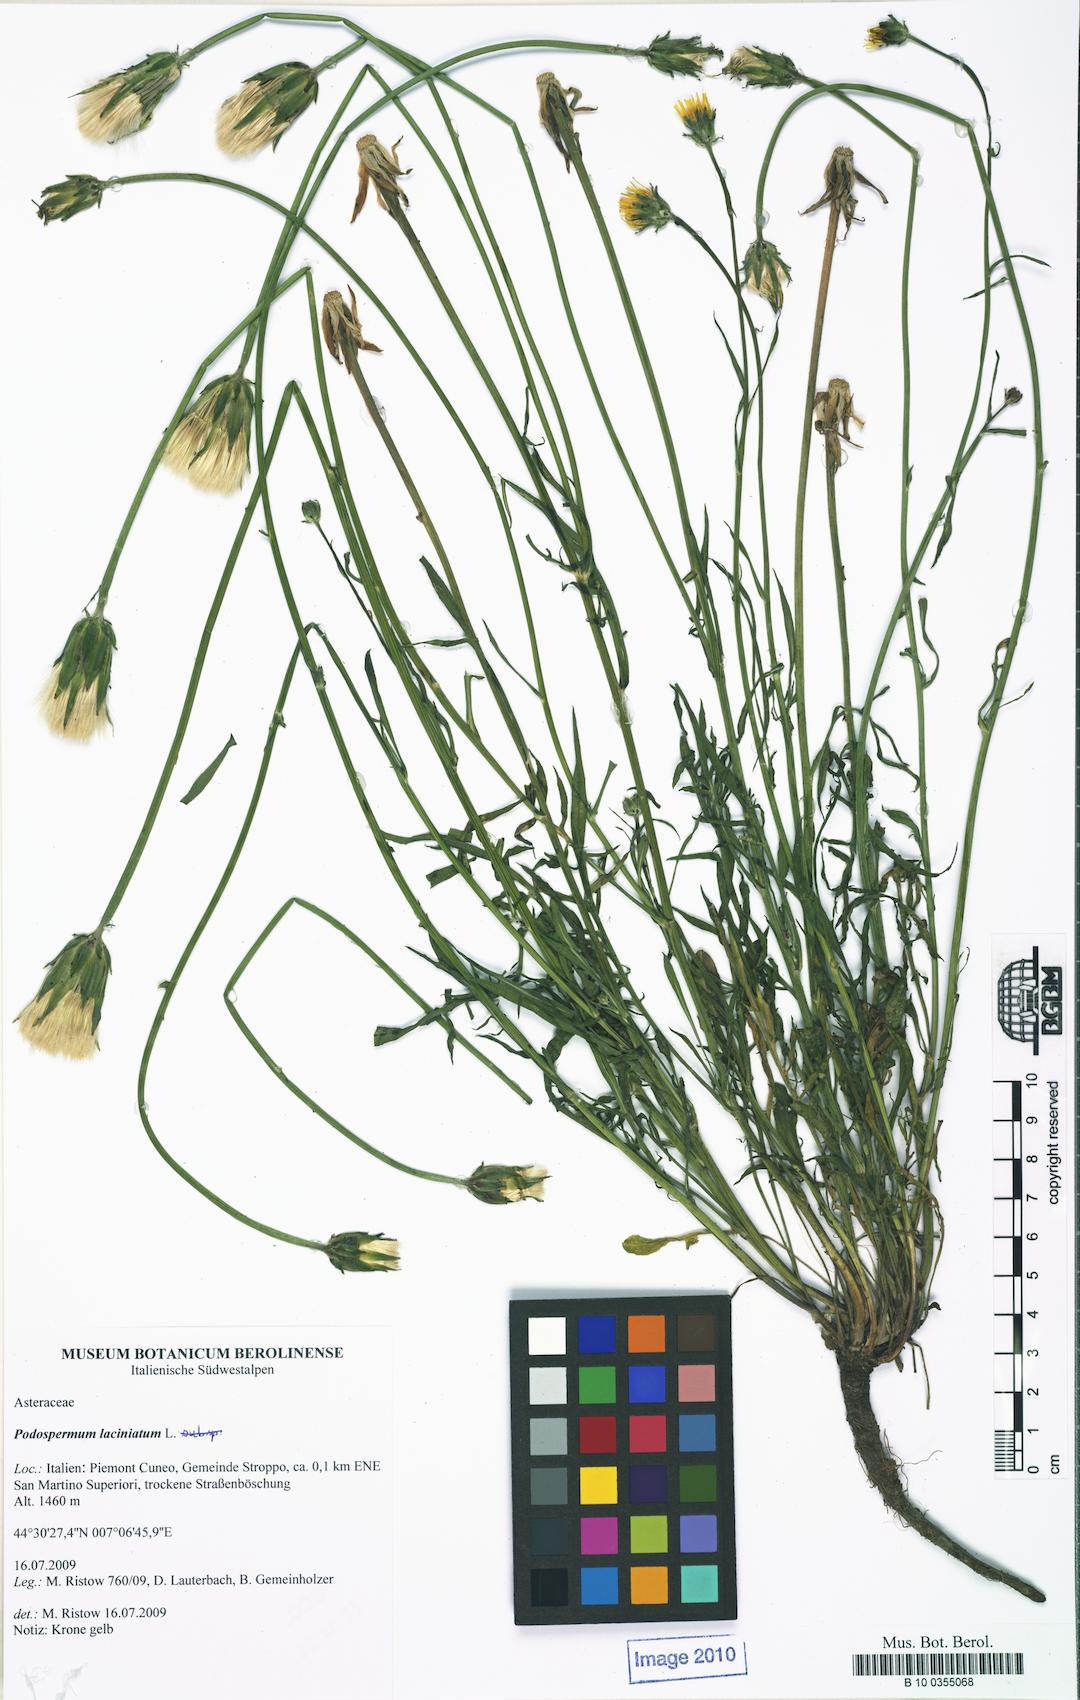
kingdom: Plantae
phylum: Tracheophyta
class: Magnoliopsida
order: Asterales
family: Asteraceae
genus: Scorzonera
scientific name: Scorzonera laciniata
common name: Cutleaf vipergrass
